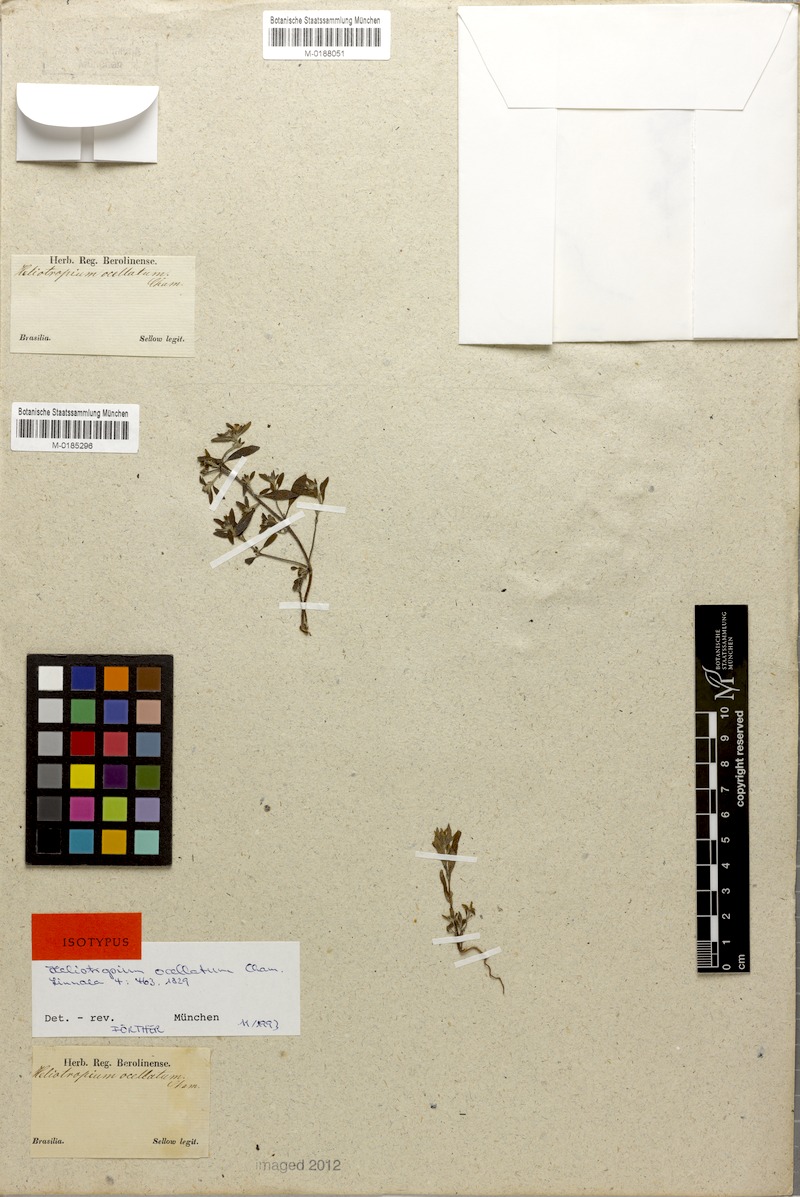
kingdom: Plantae
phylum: Tracheophyta
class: Magnoliopsida
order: Boraginales
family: Heliotropiaceae
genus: Euploca
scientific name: Euploca ocellata
